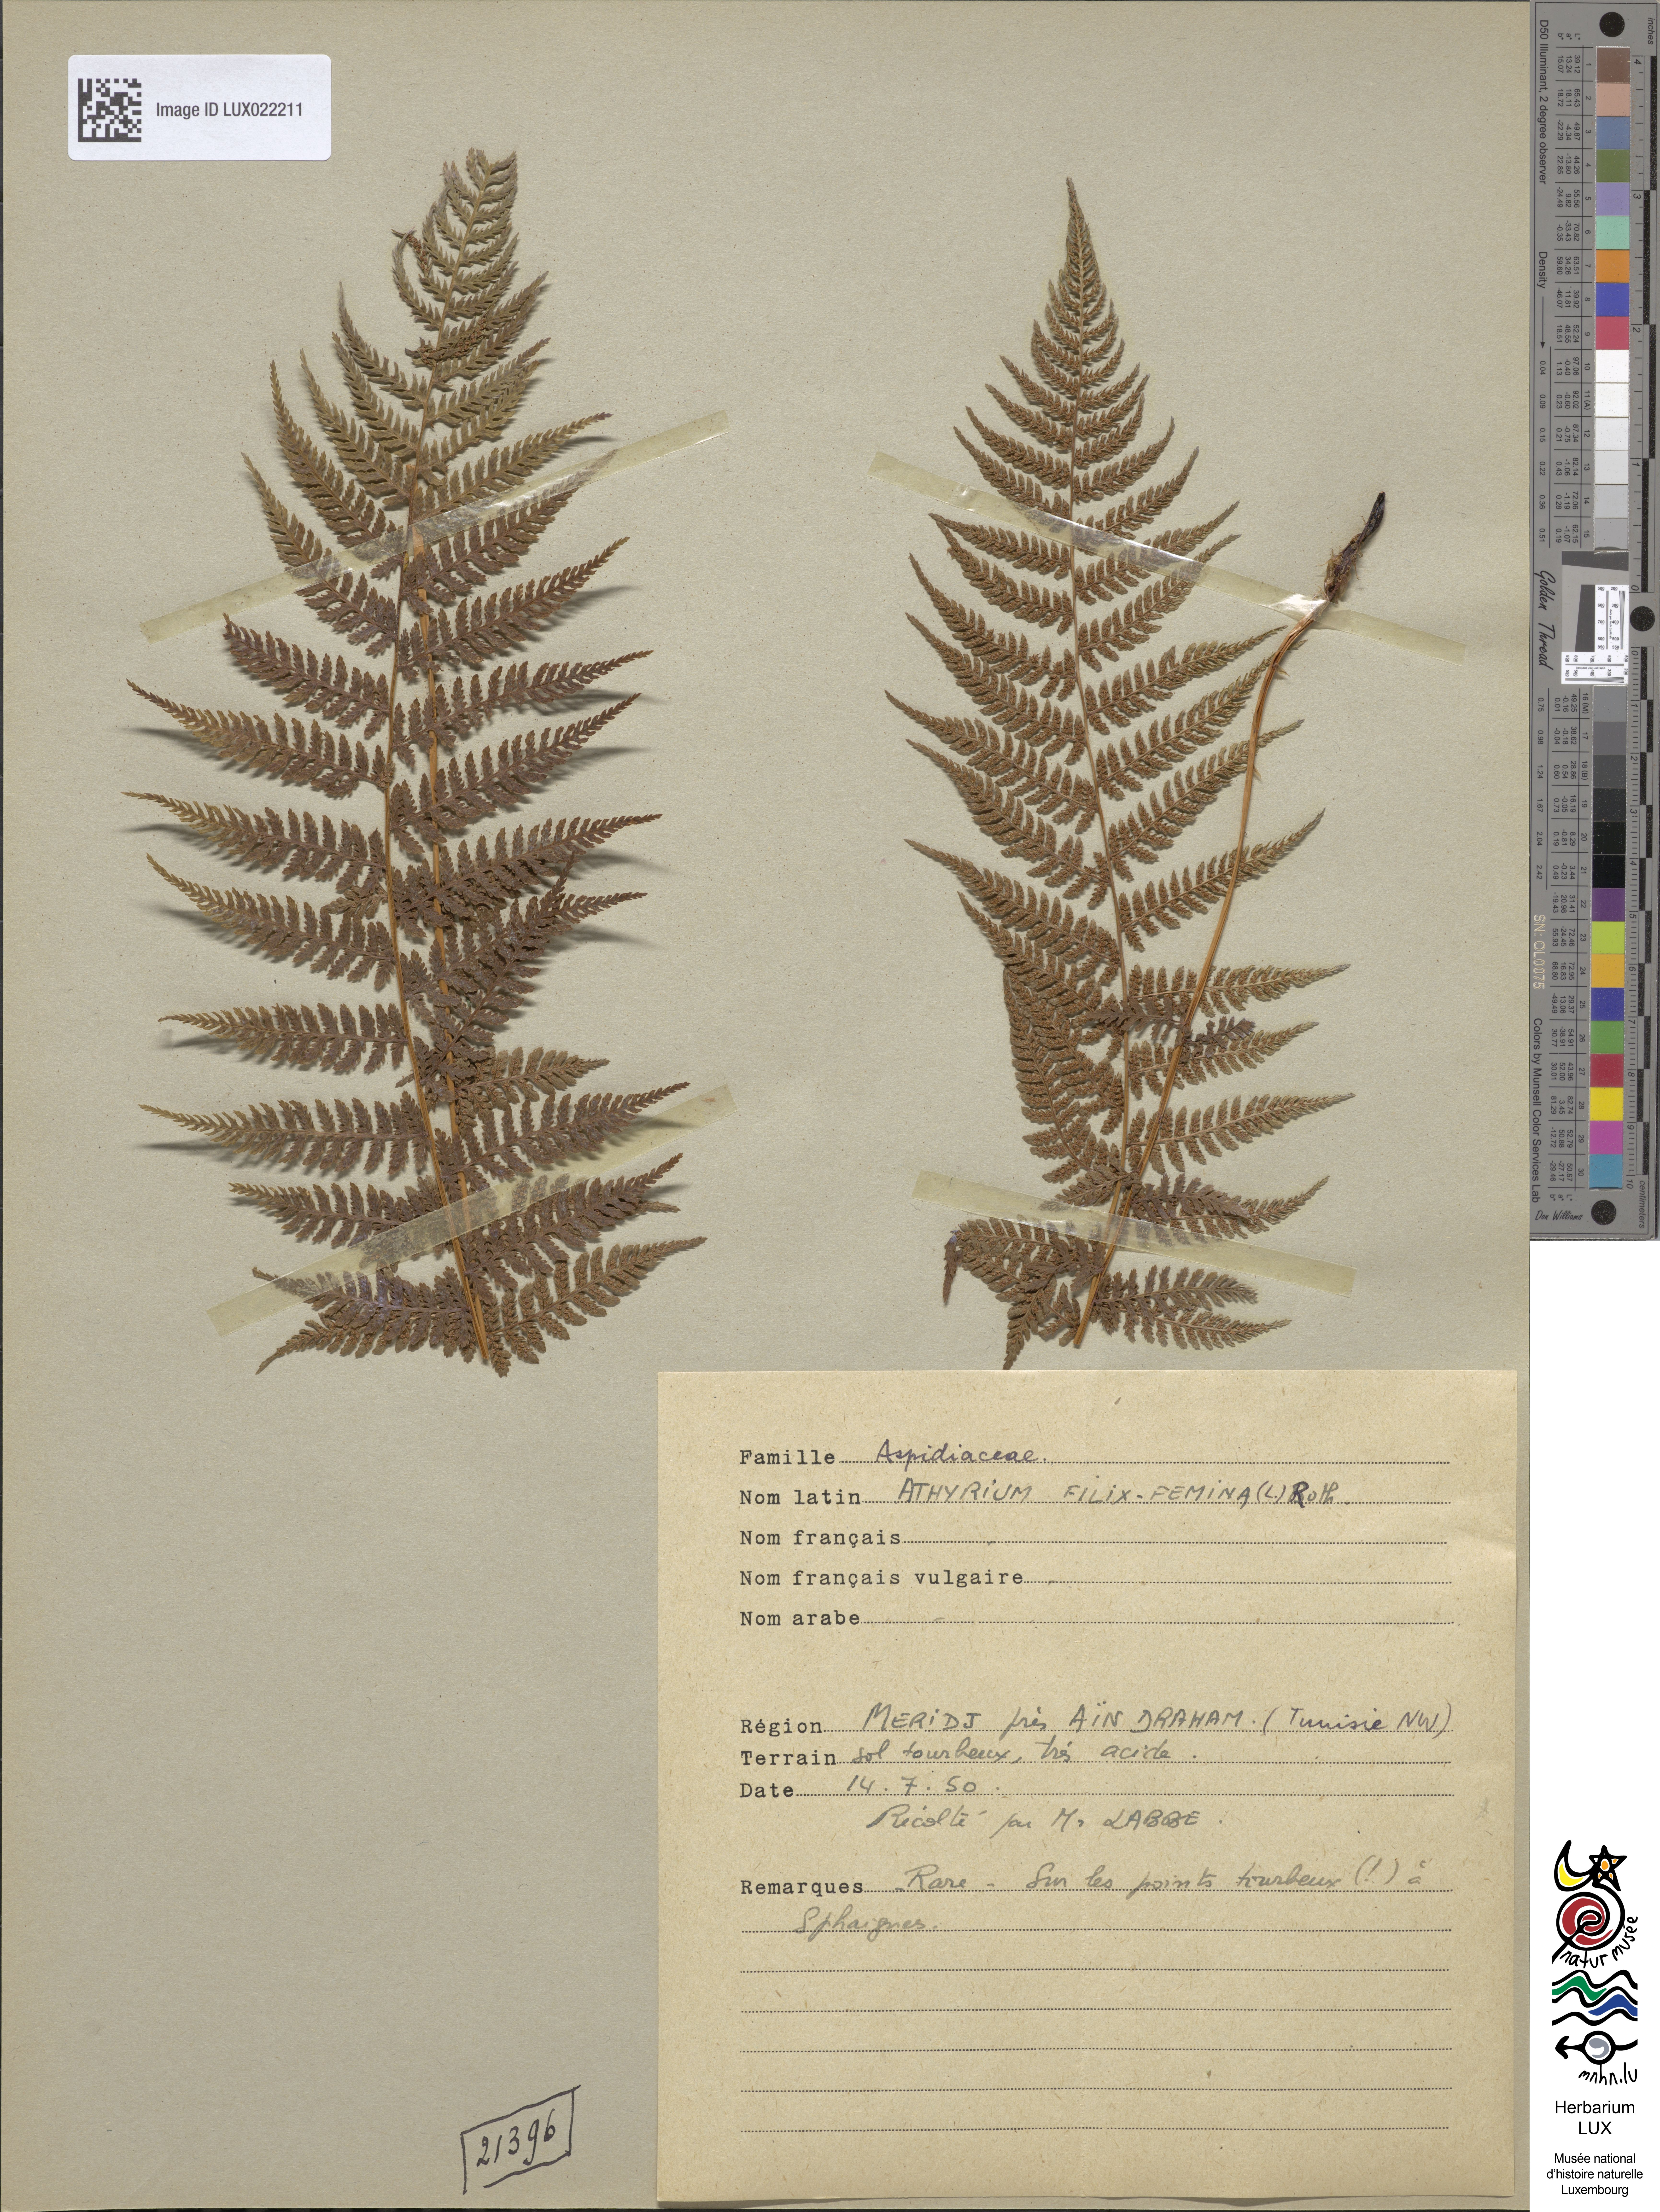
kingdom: Plantae
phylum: Tracheophyta
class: Polypodiopsida
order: Polypodiales
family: Athyriaceae
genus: Athyrium
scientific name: Athyrium filix-femina
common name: Lady fern
